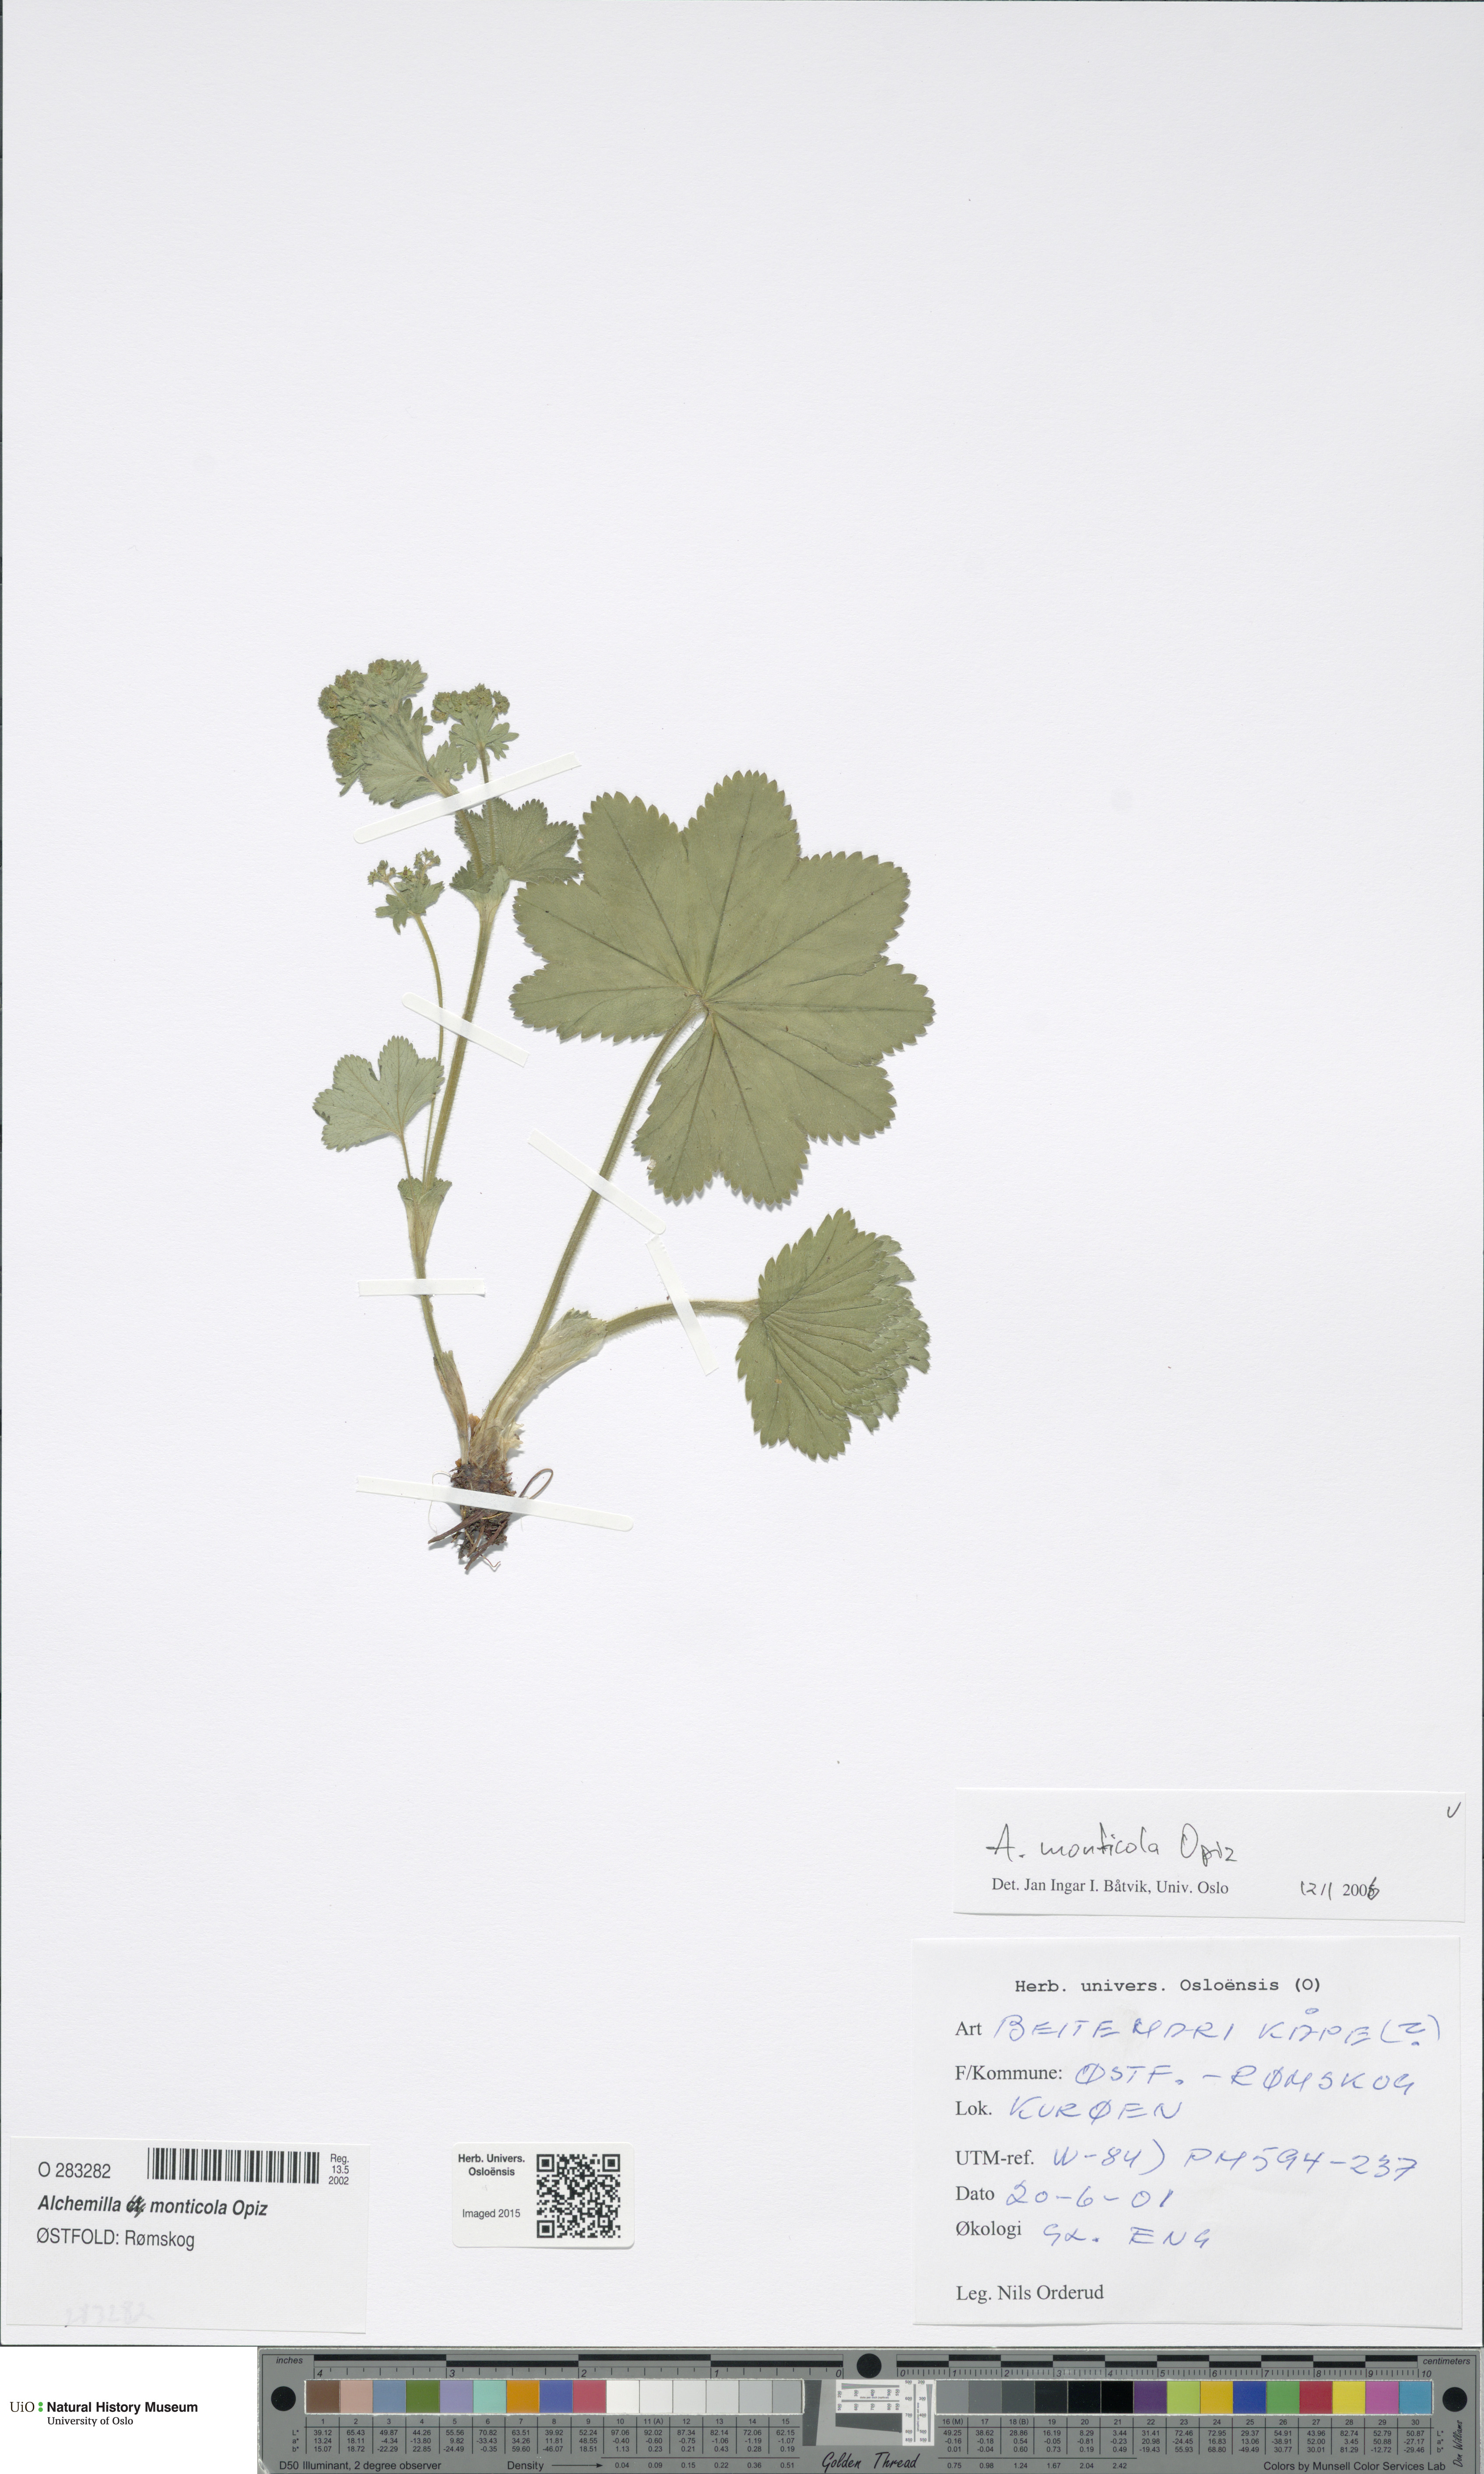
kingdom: Plantae
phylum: Tracheophyta
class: Magnoliopsida
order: Rosales
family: Rosaceae
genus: Alchemilla
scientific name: Alchemilla monticola
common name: Hairy lady's mantle
